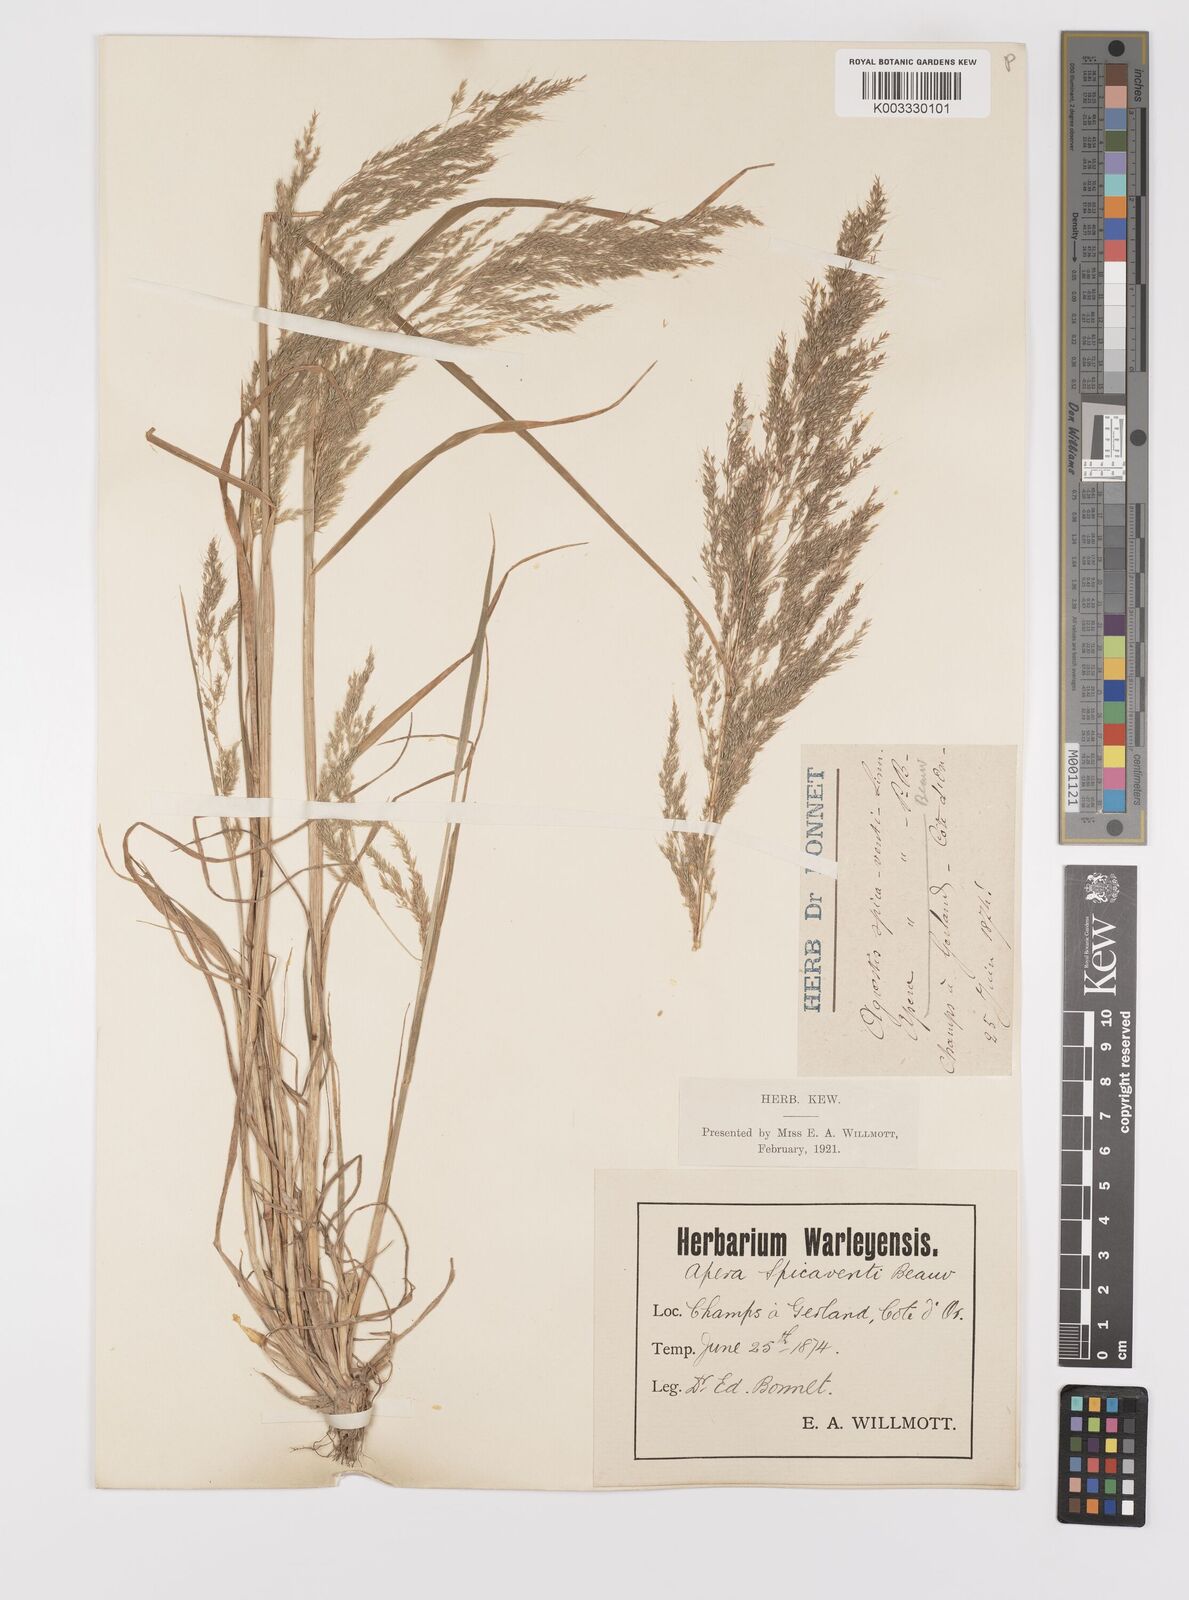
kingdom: Plantae
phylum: Tracheophyta
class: Liliopsida
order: Poales
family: Poaceae
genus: Apera
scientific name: Apera spica-venti
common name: Loose silky-bent
